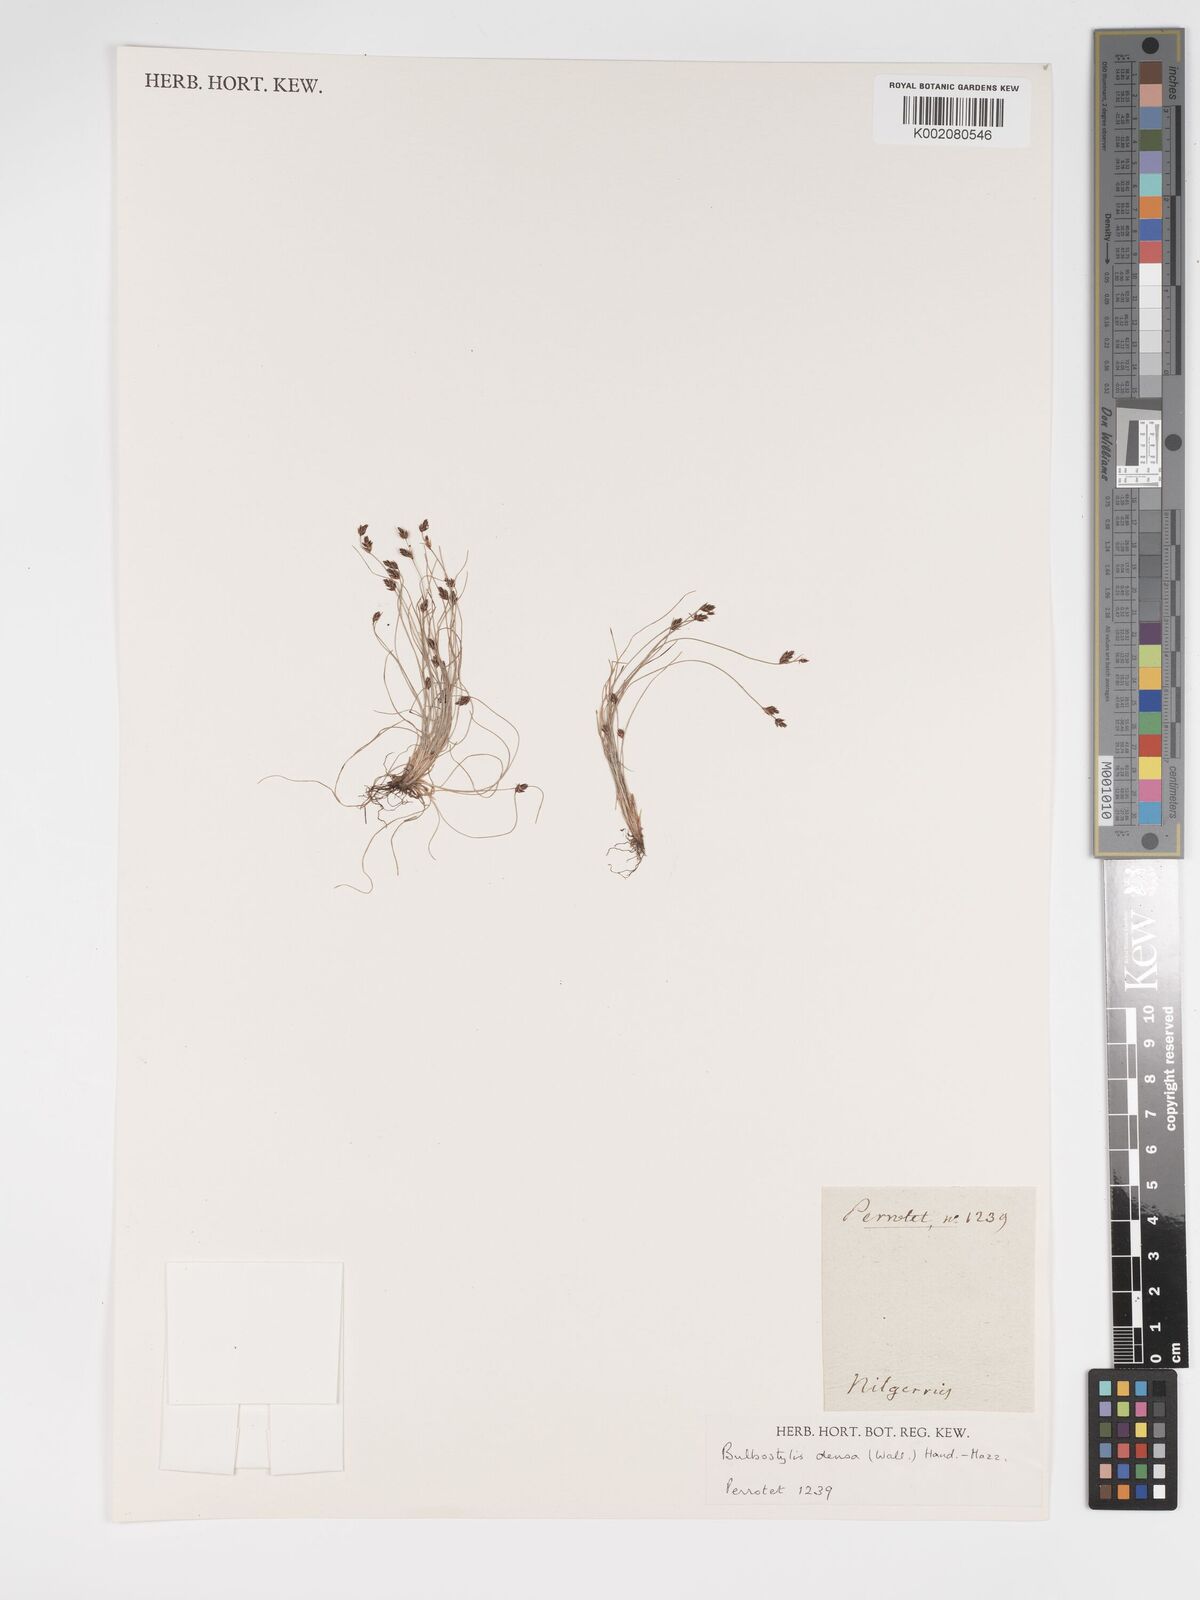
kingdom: Plantae
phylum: Tracheophyta
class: Liliopsida
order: Poales
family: Cyperaceae
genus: Bulbostylis
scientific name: Bulbostylis densa
